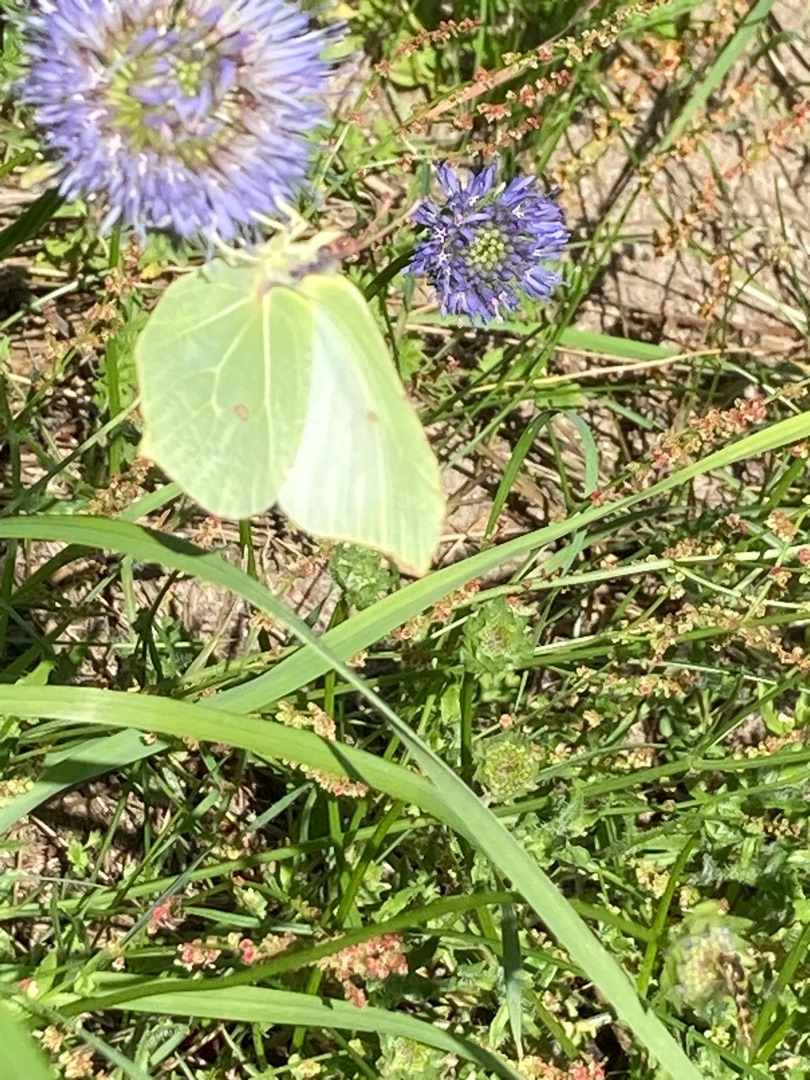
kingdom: Animalia
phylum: Arthropoda
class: Insecta
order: Lepidoptera
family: Pieridae
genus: Gonepteryx
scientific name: Gonepteryx rhamni
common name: Citronsommerfugl
